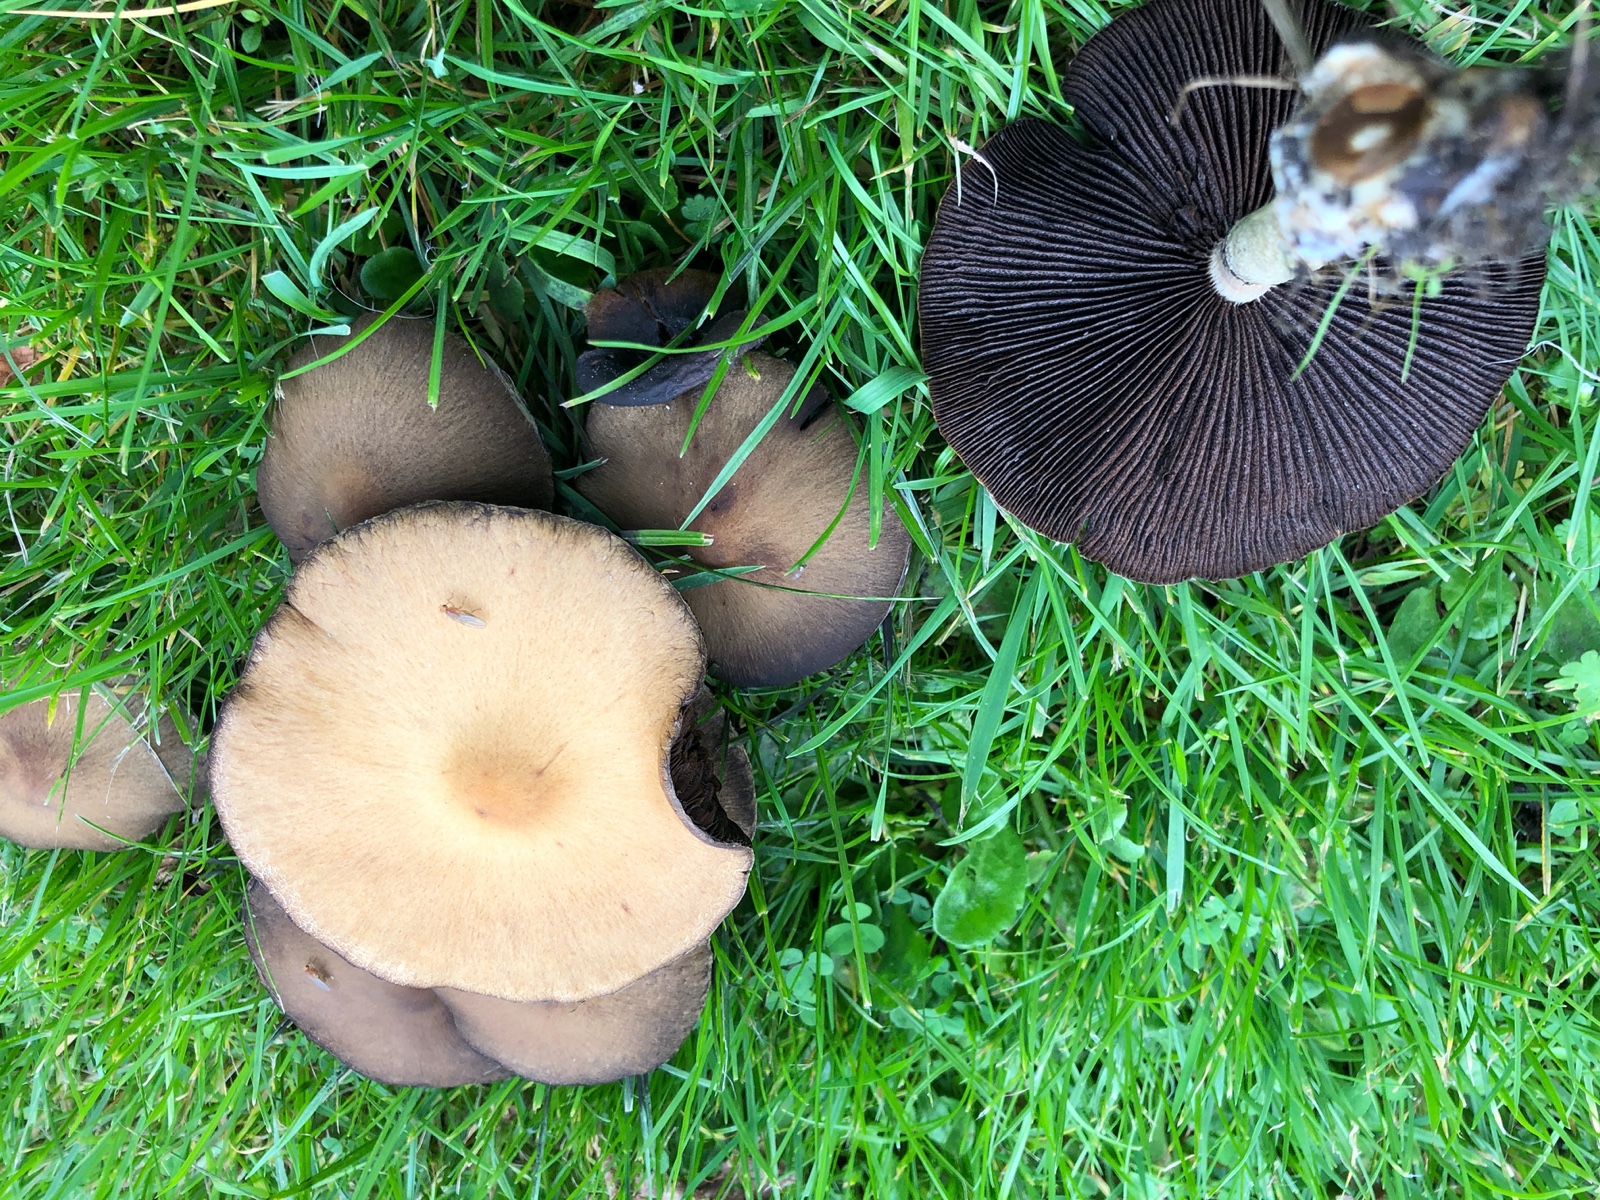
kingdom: Fungi
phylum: Basidiomycota
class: Agaricomycetes
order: Agaricales
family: Psathyrellaceae
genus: Lacrymaria
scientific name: Lacrymaria lacrymabunda
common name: grædende mørkhat
